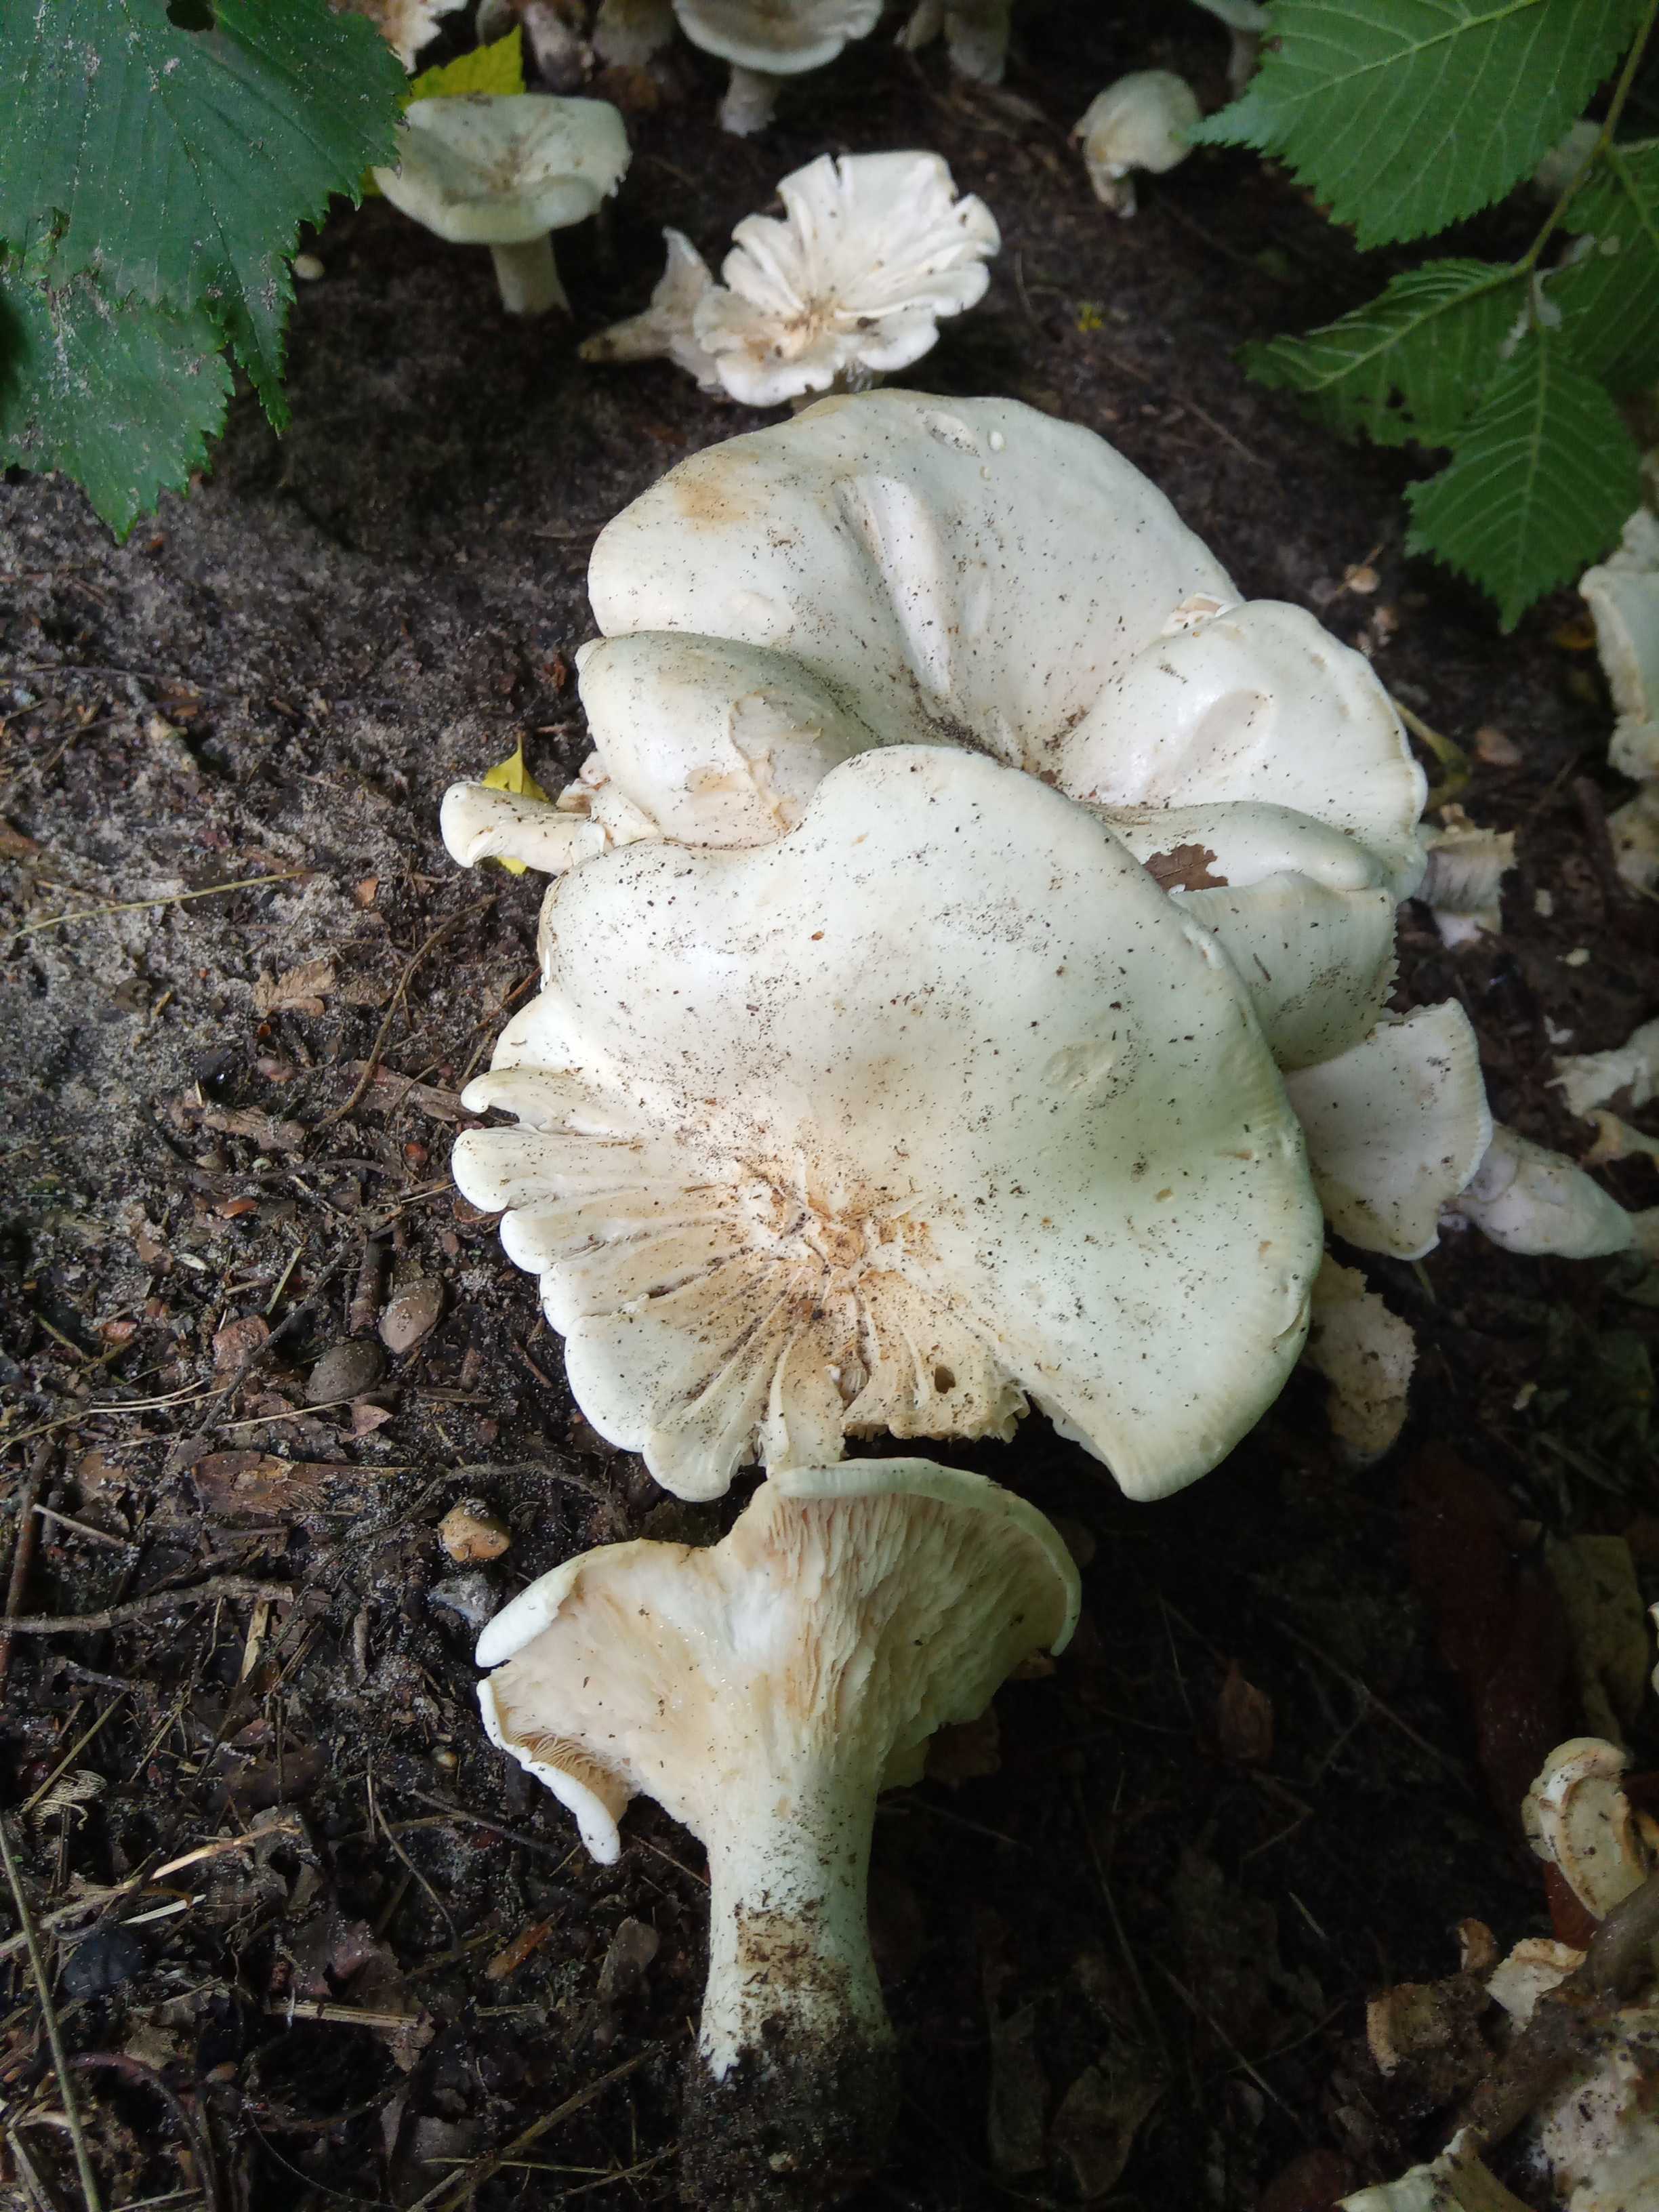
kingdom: Fungi
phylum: Basidiomycota
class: Agaricomycetes
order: Agaricales
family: Tricholomataceae
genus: Aspropaxillus
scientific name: Aspropaxillus giganteus
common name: kæmpe-tragtridderhat
